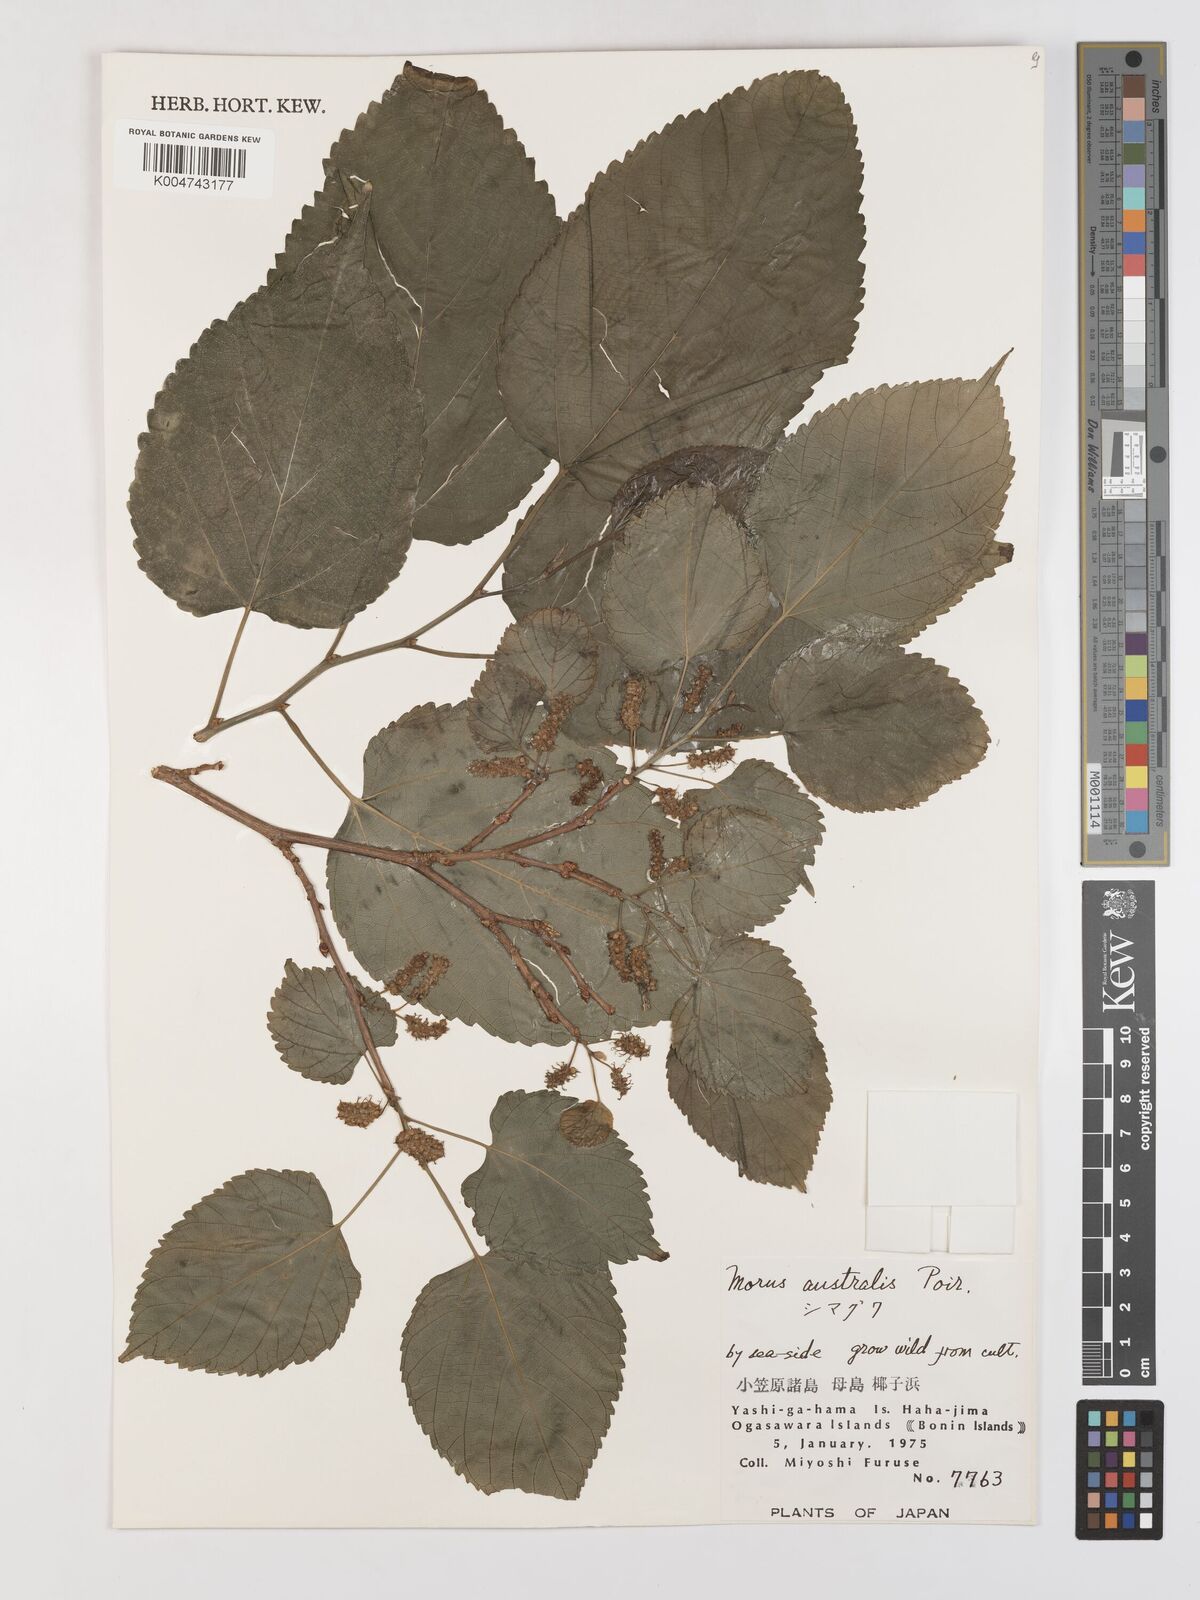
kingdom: Plantae
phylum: Tracheophyta
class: Magnoliopsida
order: Rosales
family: Moraceae
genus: Morus
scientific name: Morus indica
